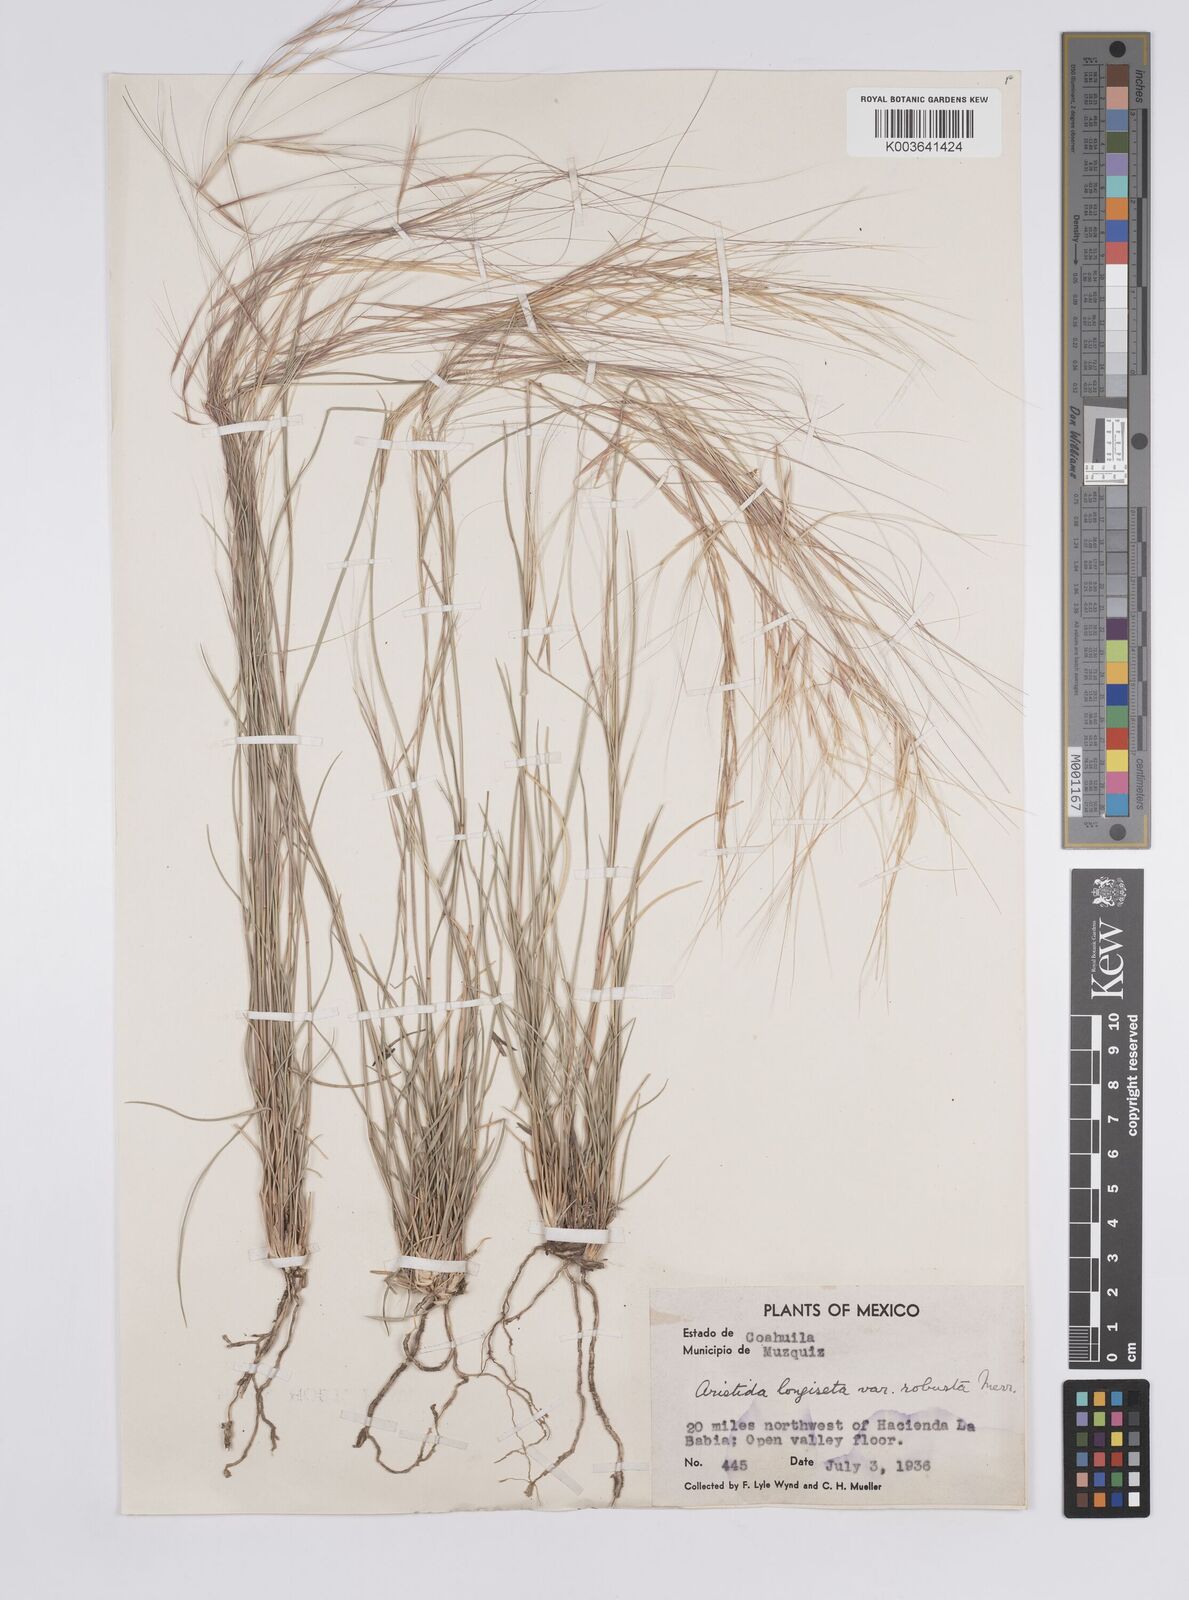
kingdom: Plantae
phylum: Tracheophyta
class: Liliopsida
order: Poales
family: Poaceae
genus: Aristida
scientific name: Aristida purpurea
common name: Purple threeawn
